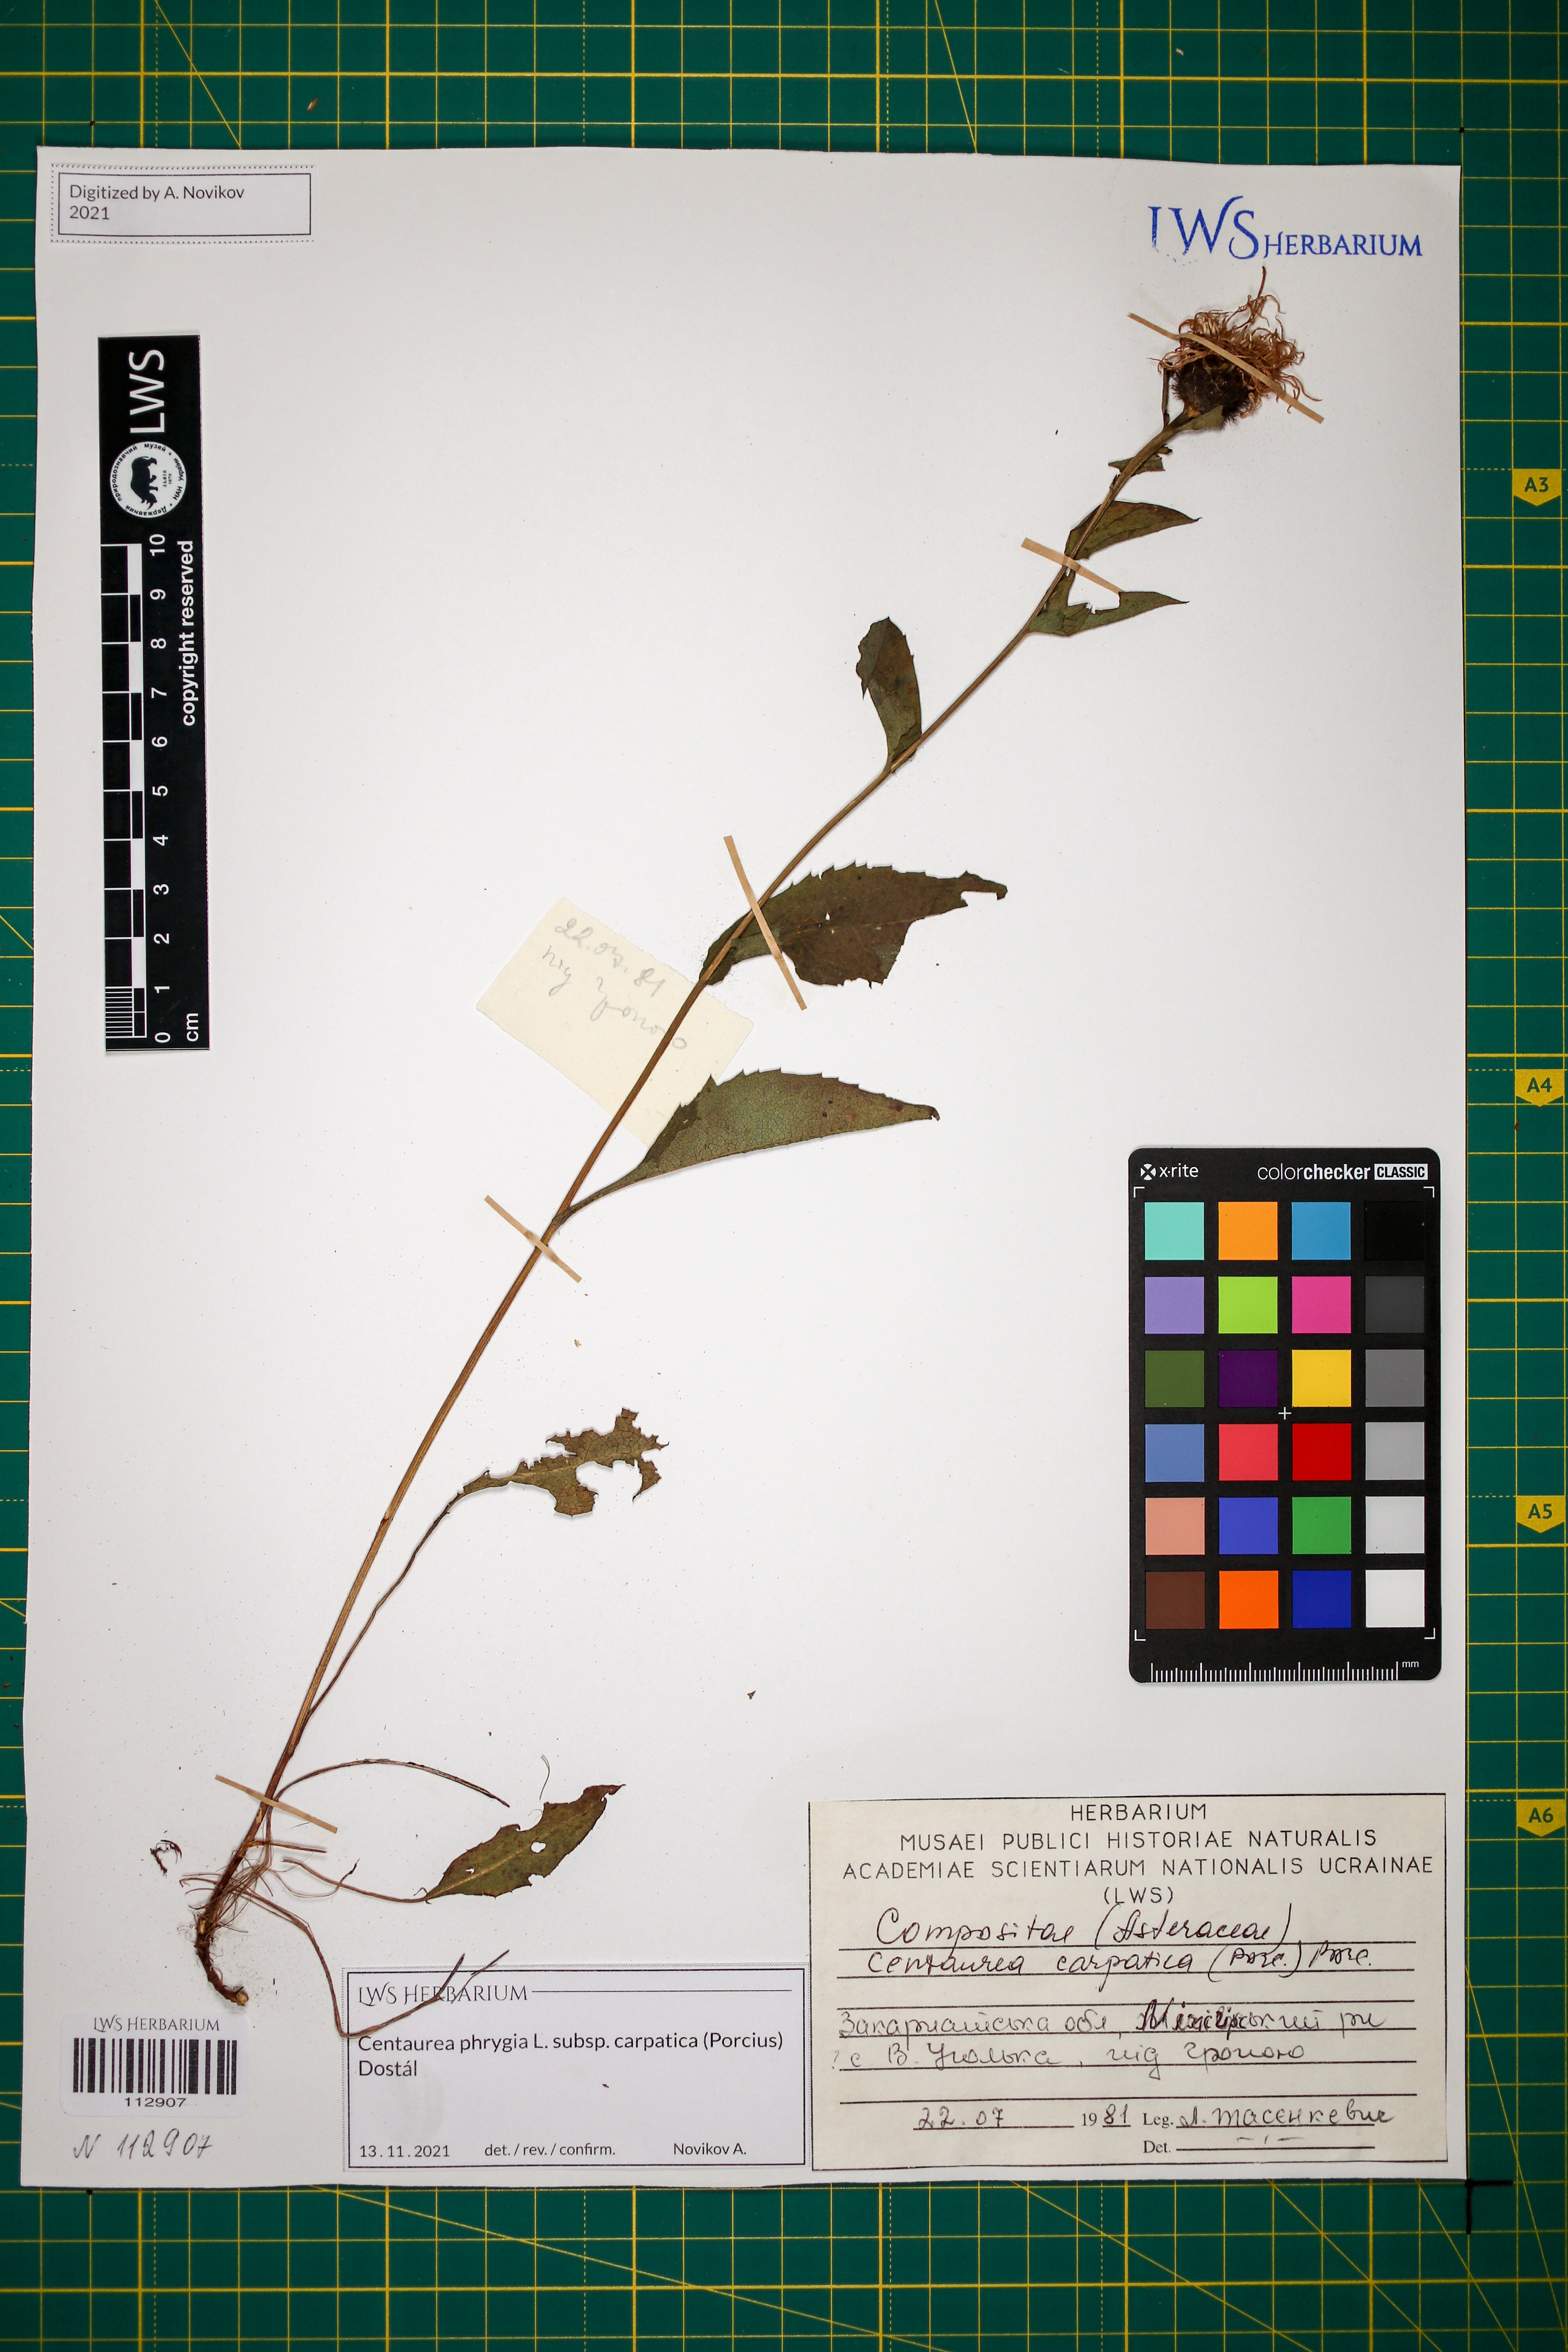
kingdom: Plantae
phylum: Tracheophyta
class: Magnoliopsida
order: Asterales
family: Asteraceae
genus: Centaurea
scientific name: Centaurea phrygia
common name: Wig knapweed
